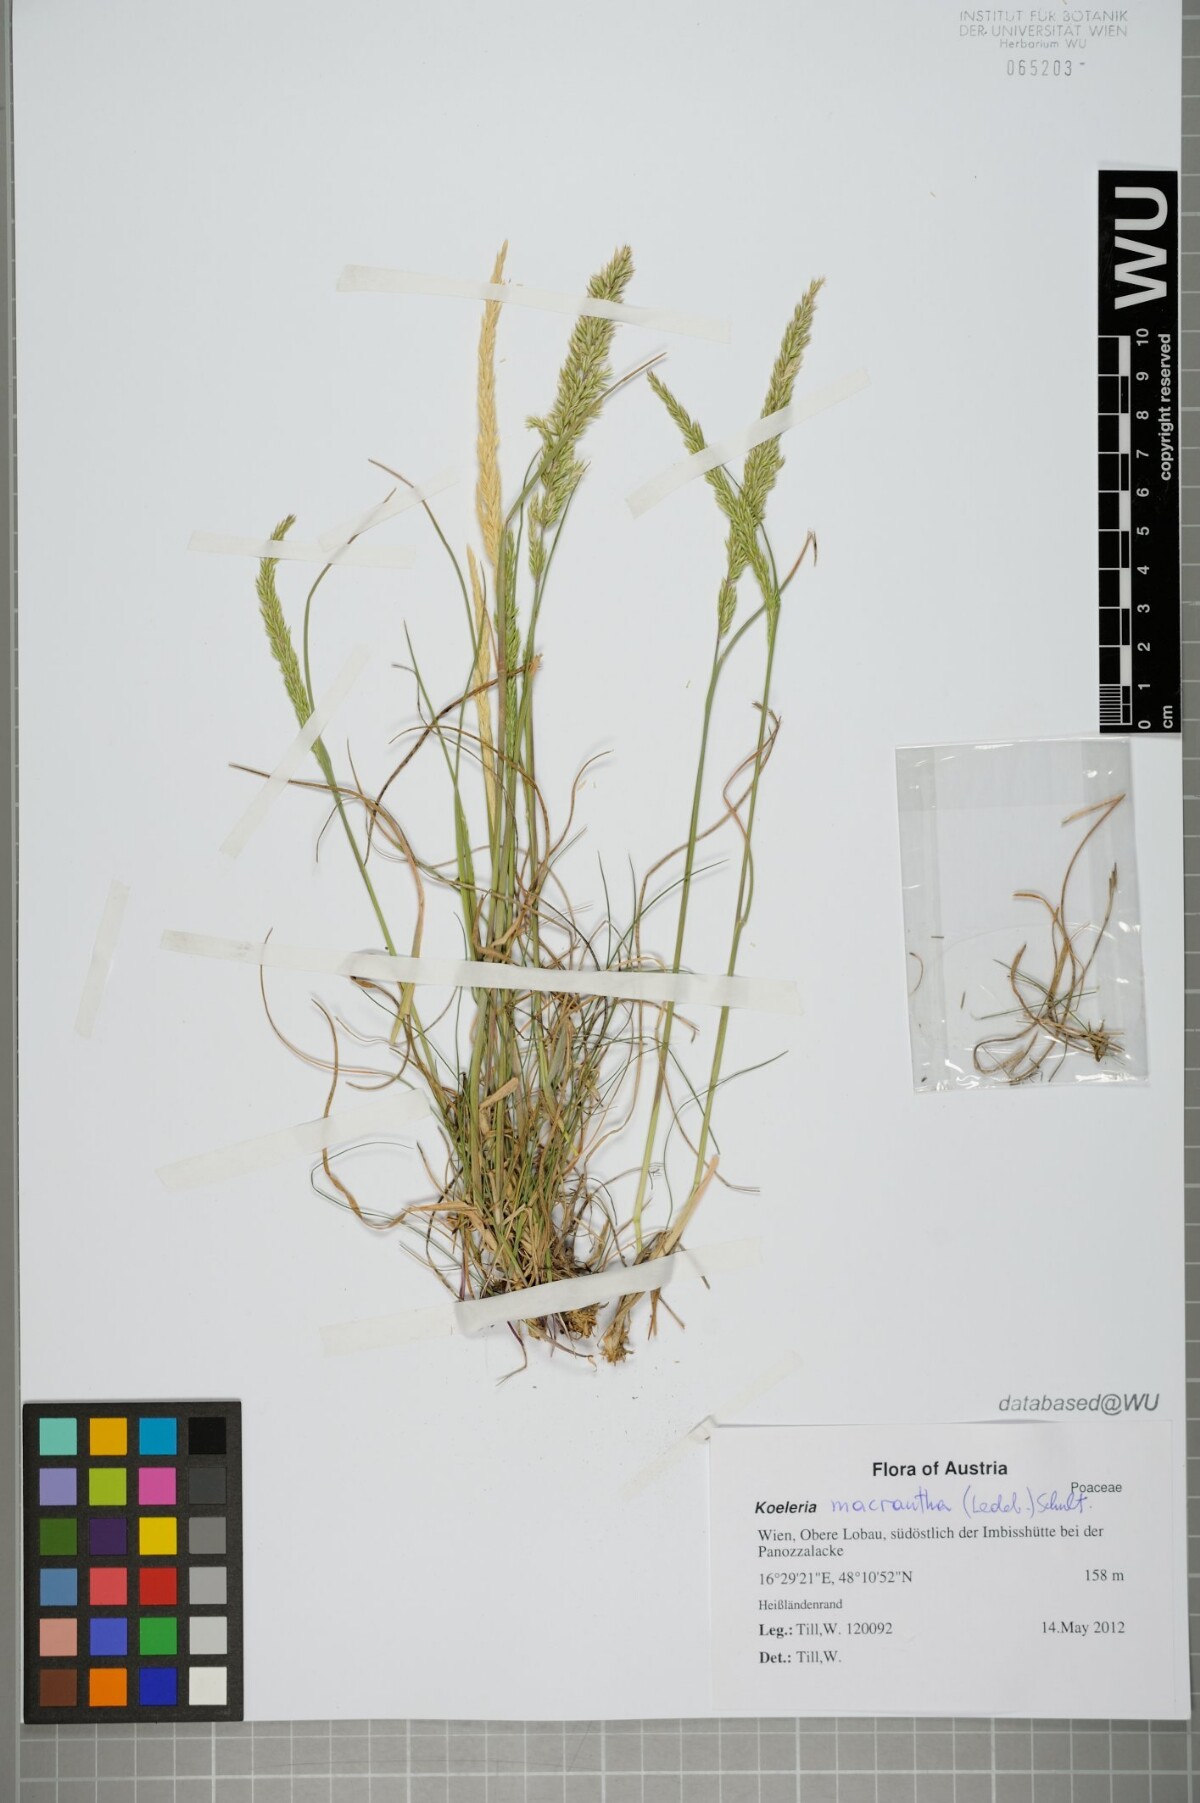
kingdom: Plantae
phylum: Tracheophyta
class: Liliopsida
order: Poales
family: Poaceae
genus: Koeleria
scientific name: Koeleria macrantha
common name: Crested hair-grass
